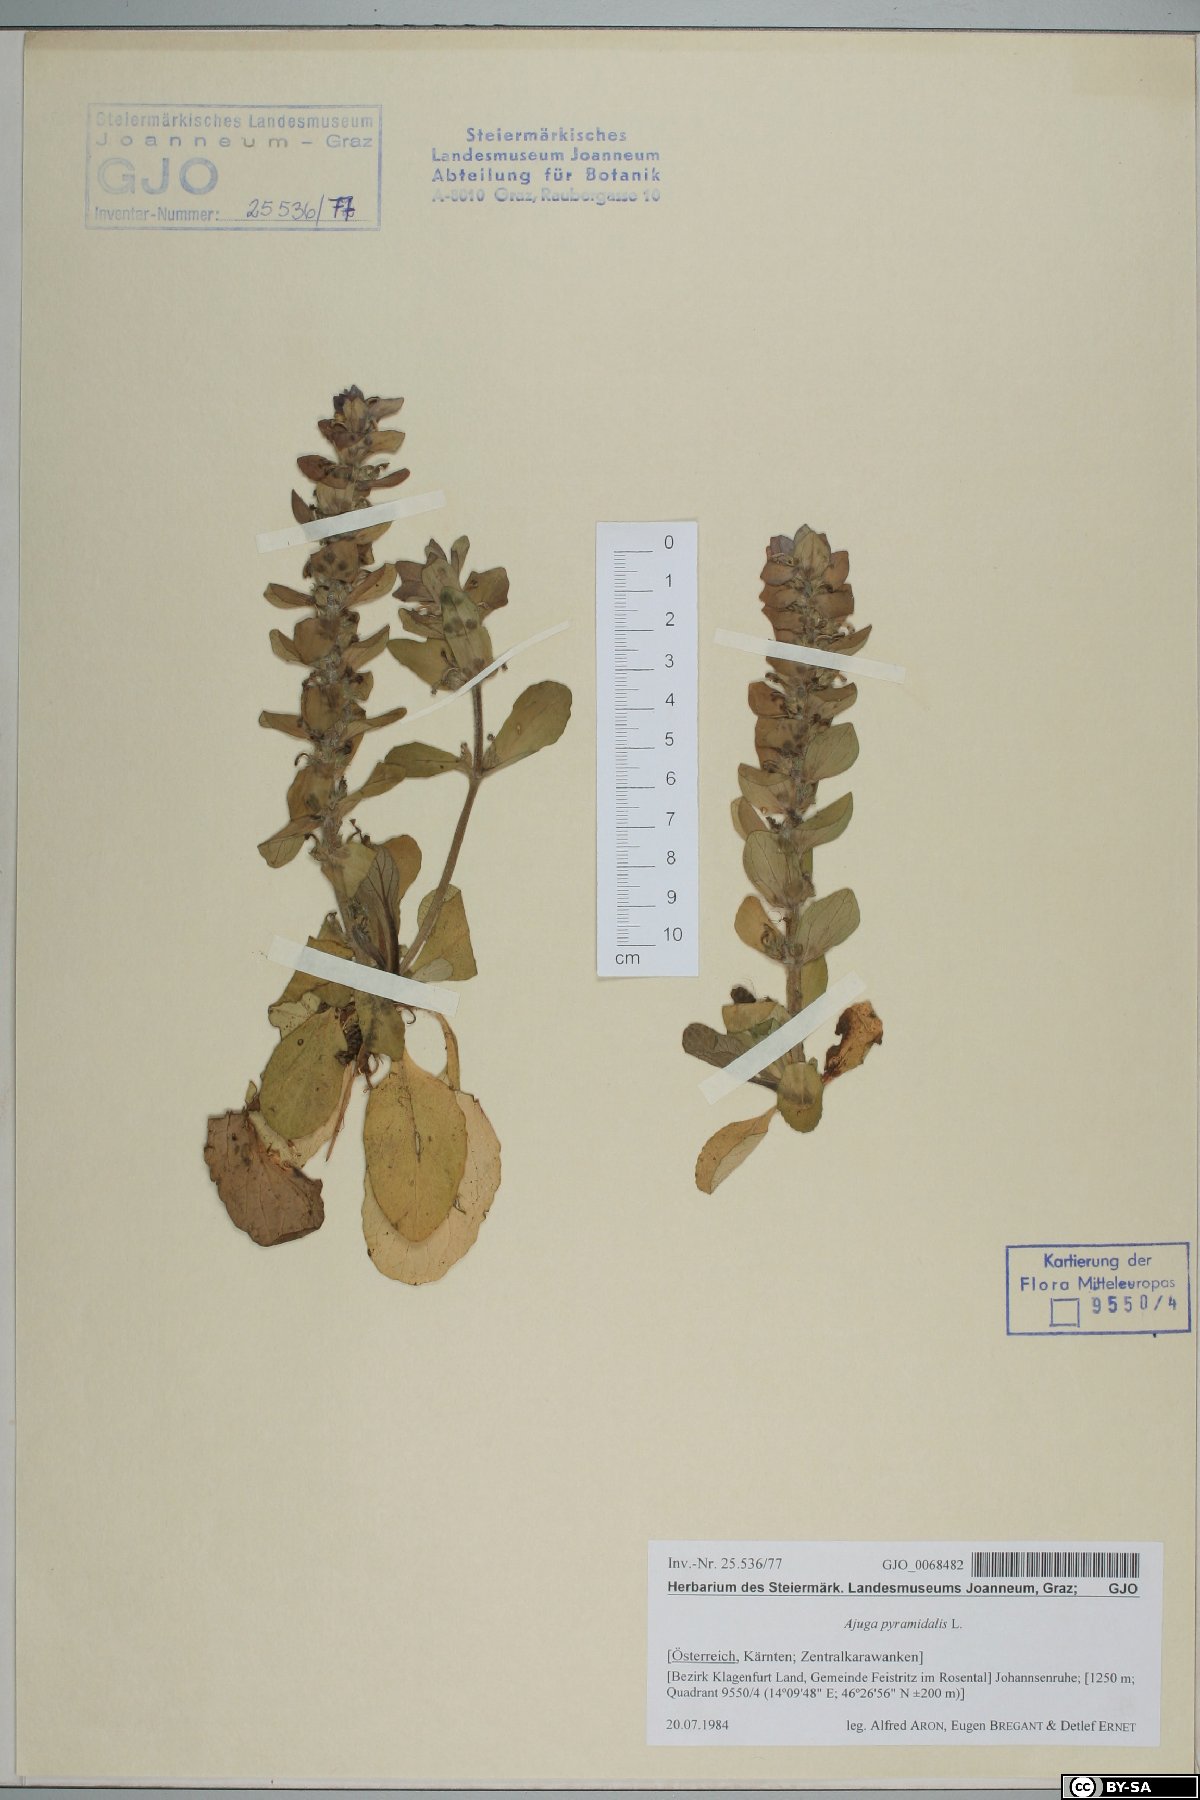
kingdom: Plantae
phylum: Tracheophyta
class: Magnoliopsida
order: Lamiales
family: Lamiaceae
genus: Ajuga
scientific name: Ajuga pyramidalis
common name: Pyramid bugle
